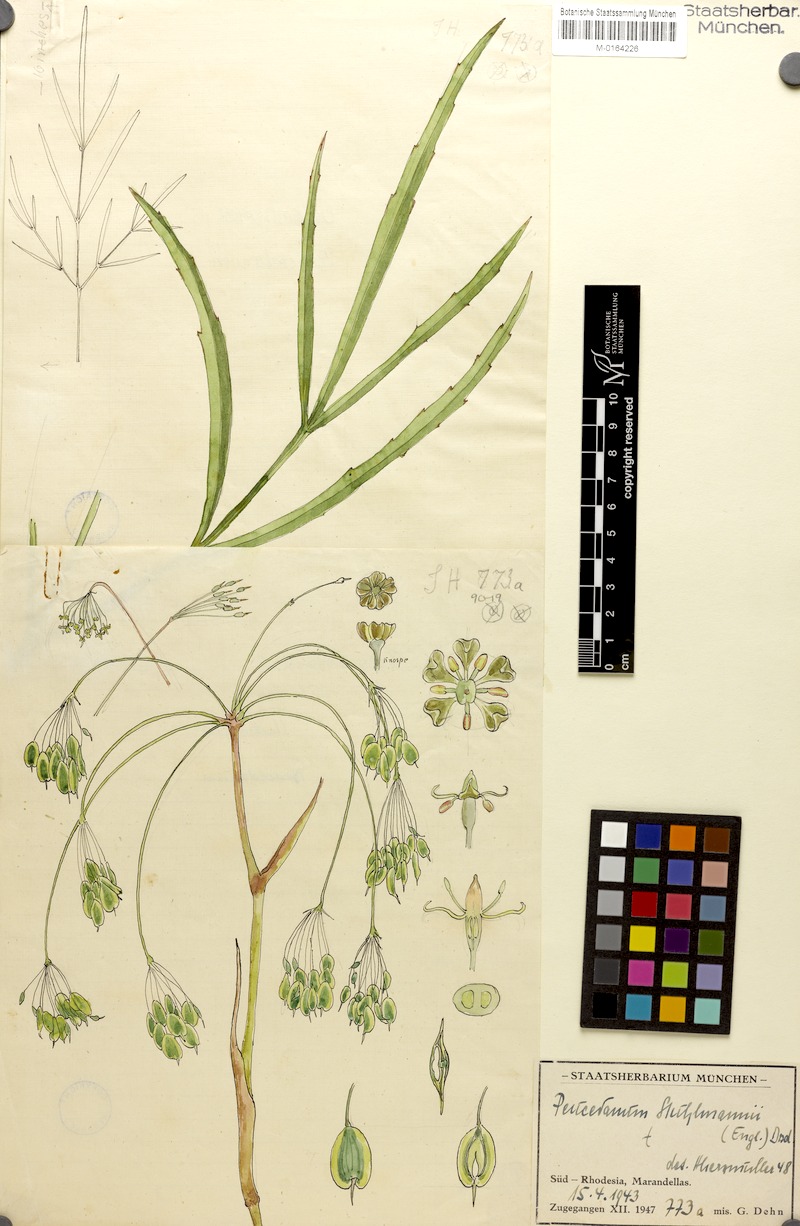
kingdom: Plantae
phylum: Tracheophyta
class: Magnoliopsida
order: Apiales
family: Apiaceae
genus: Lefebvrea
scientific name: Lefebvrea abyssinica
